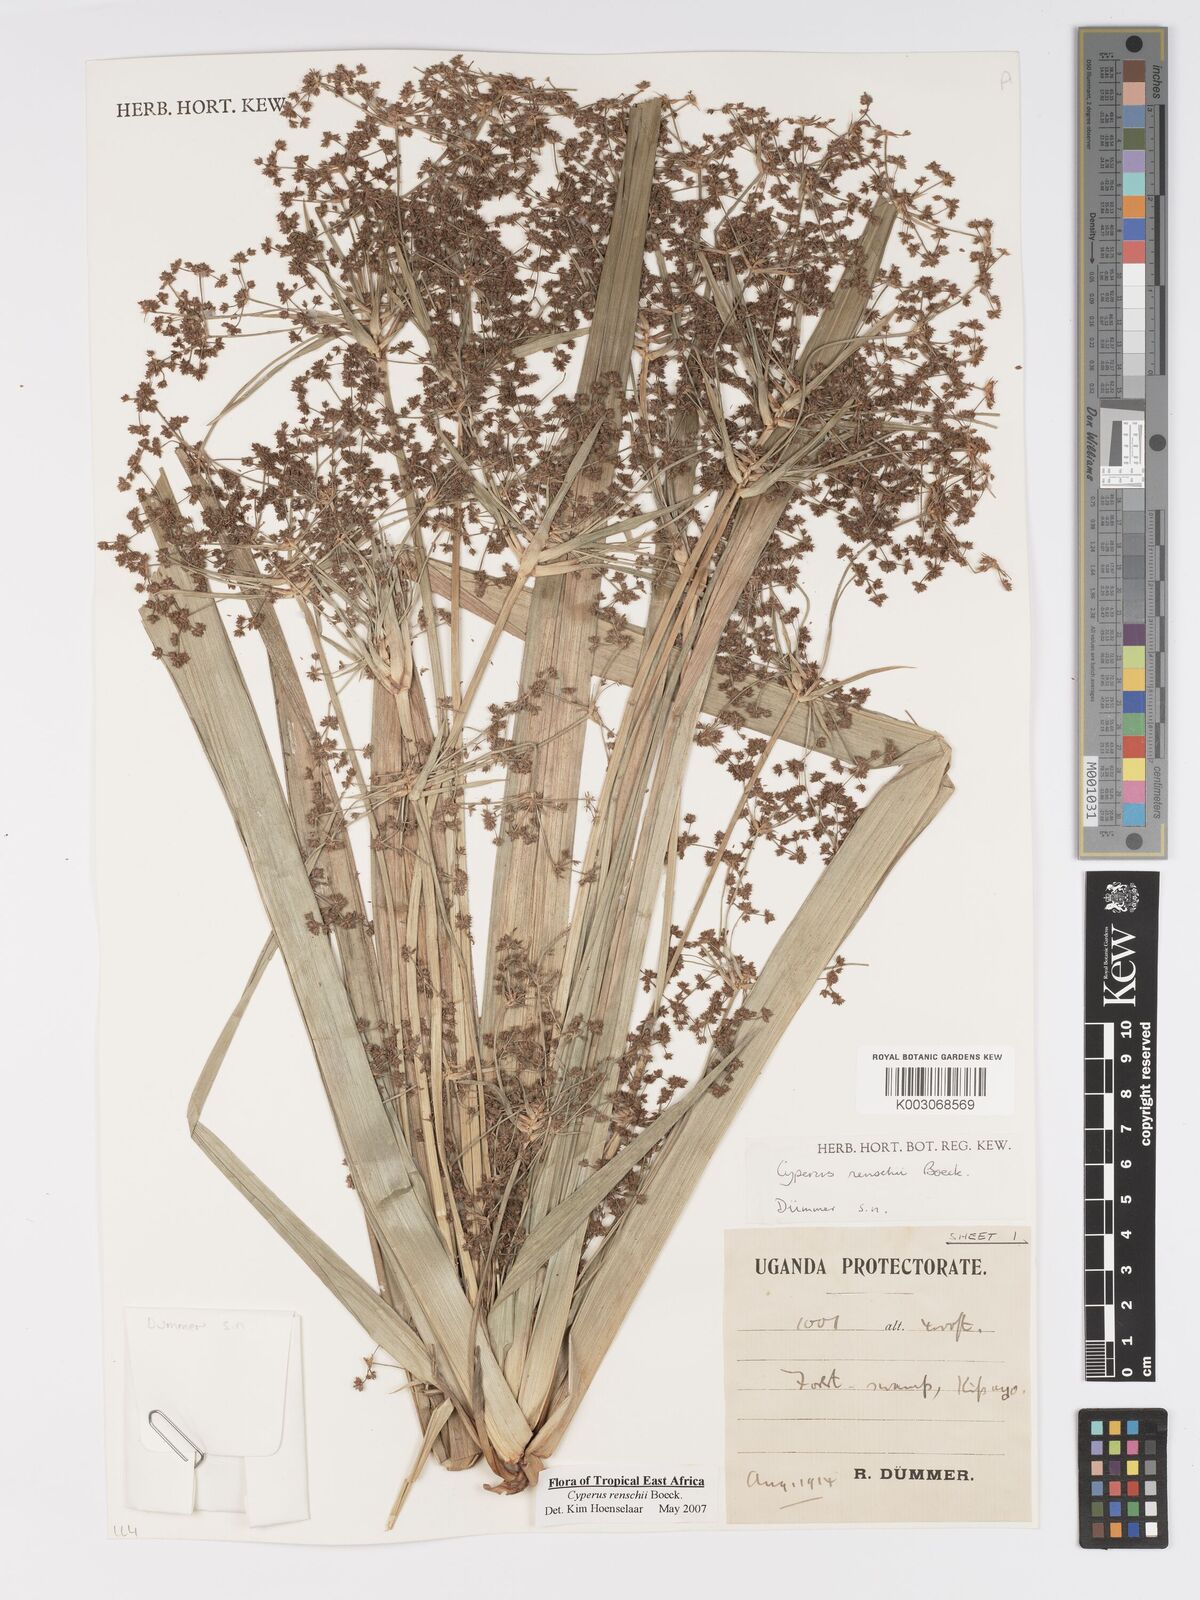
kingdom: Plantae
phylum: Tracheophyta
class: Liliopsida
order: Poales
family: Cyperaceae
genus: Cyperus
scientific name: Cyperus renschii
